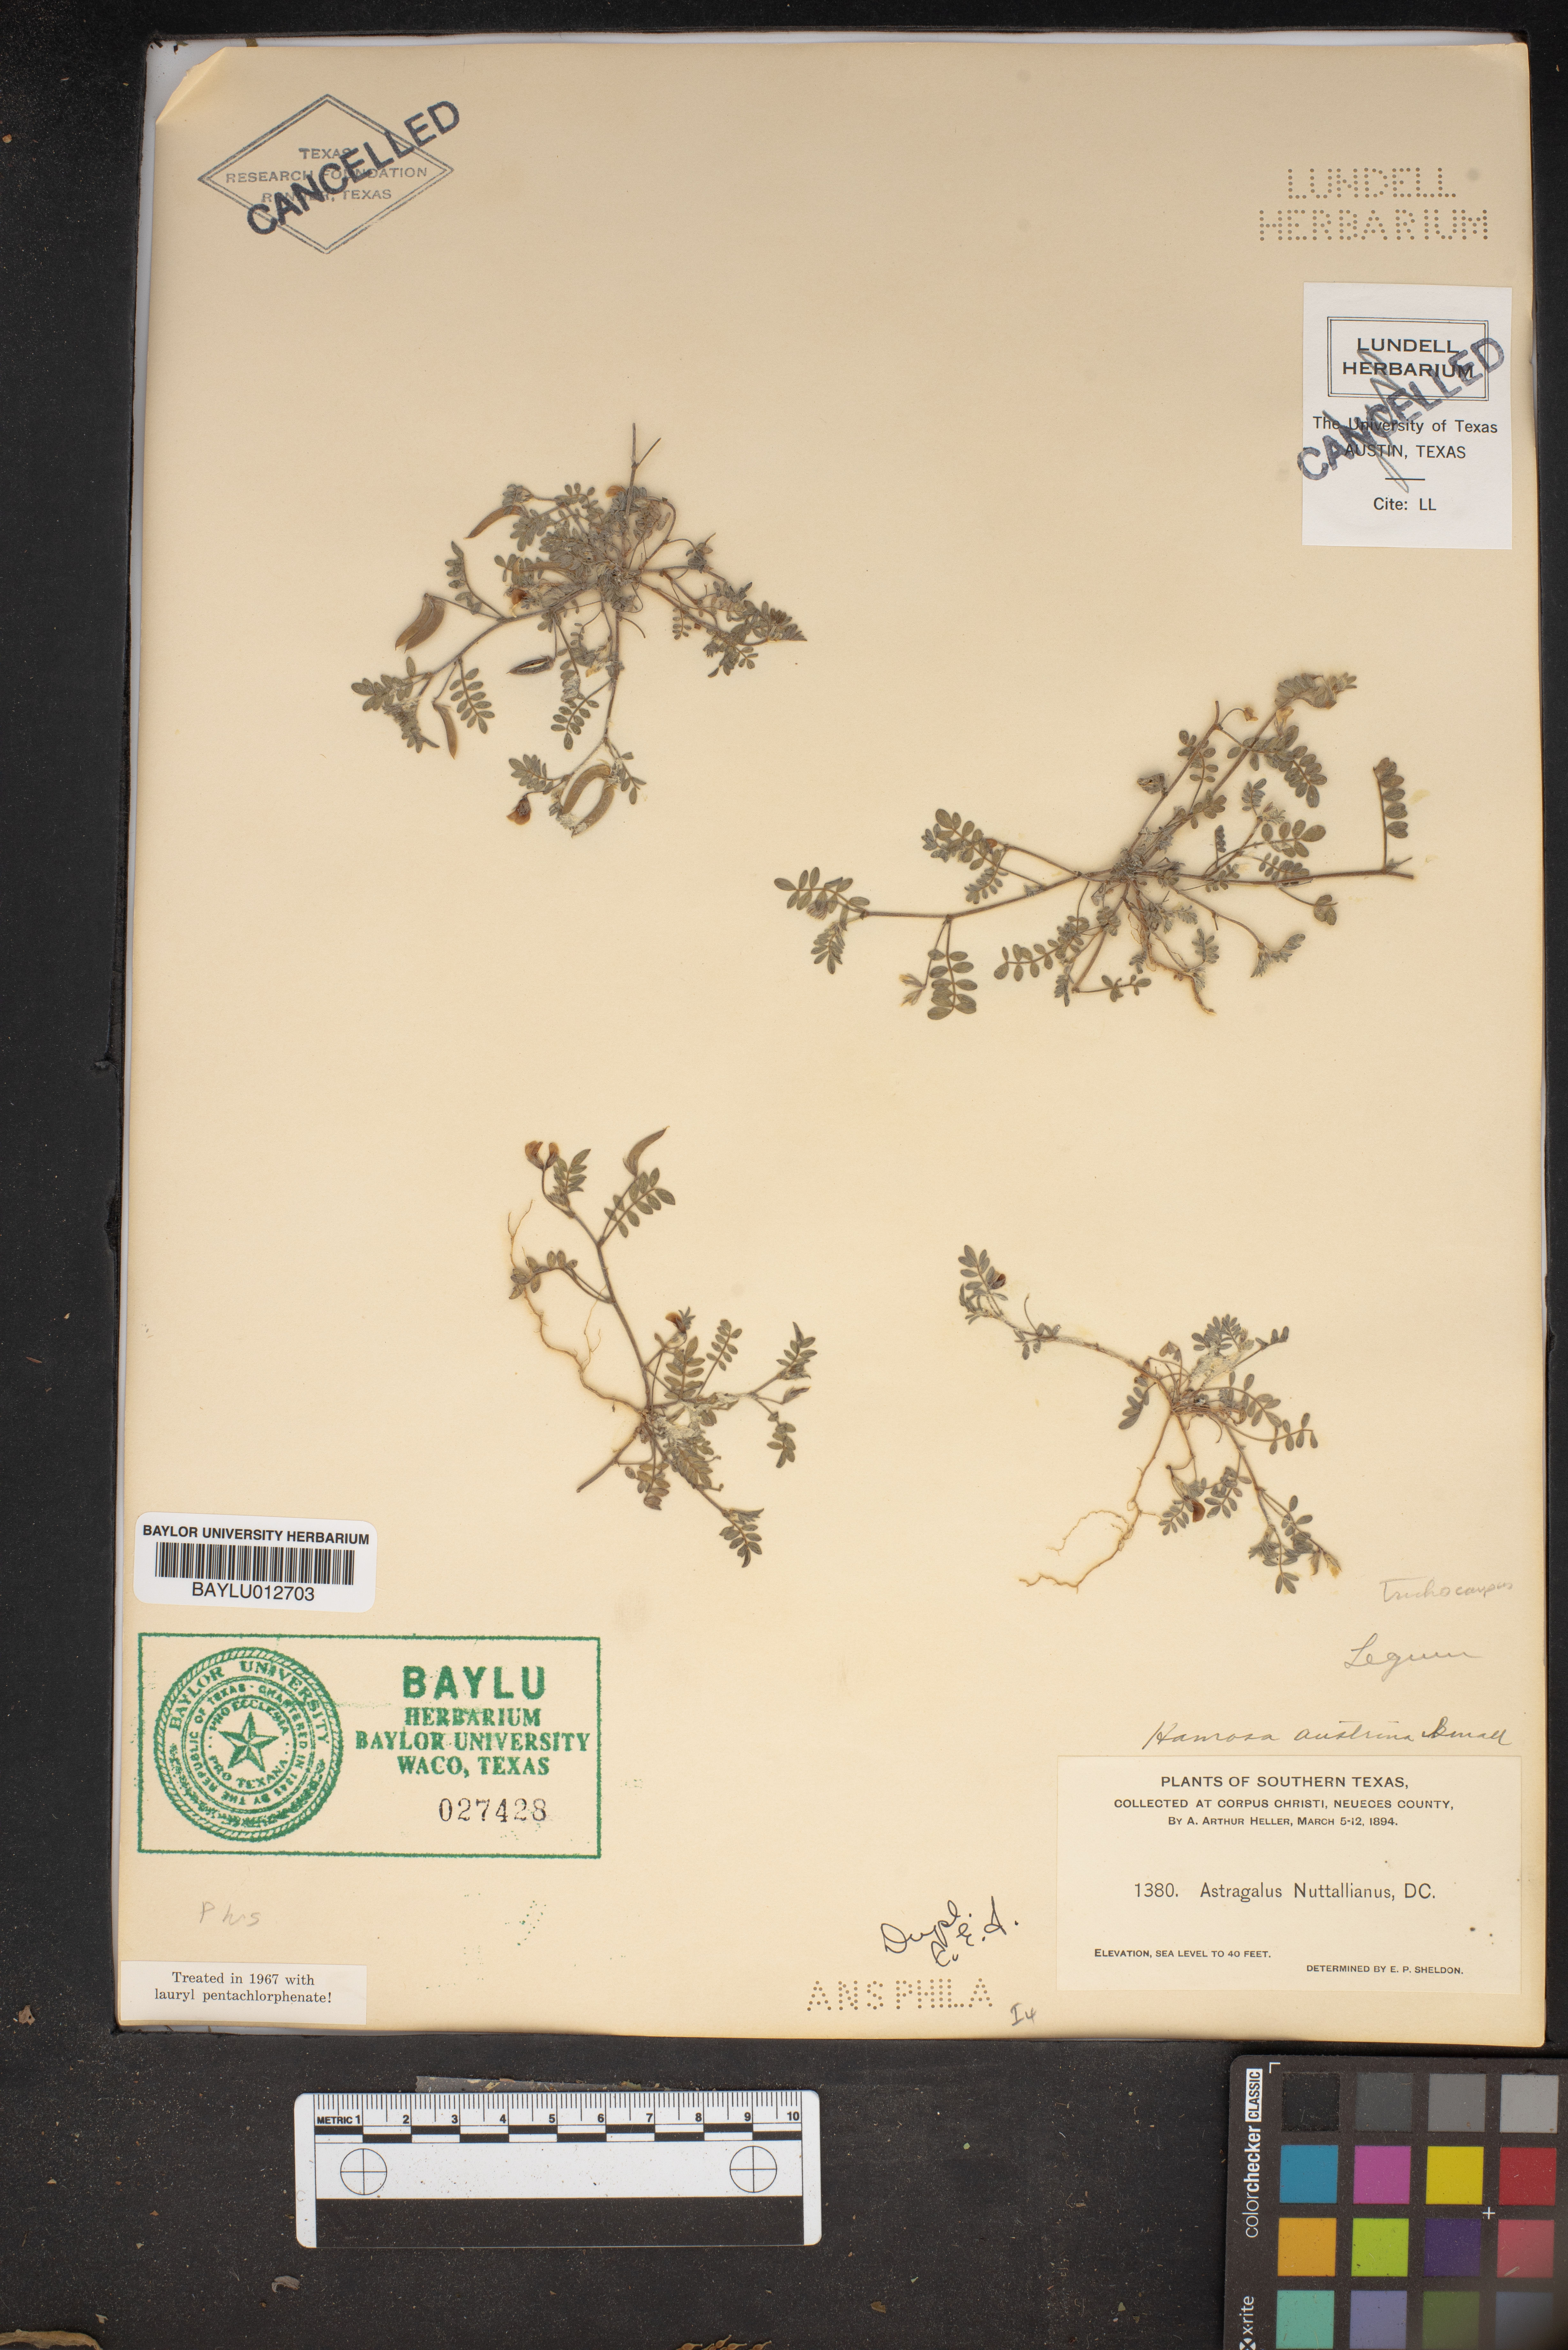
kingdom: Plantae
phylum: Tracheophyta
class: Magnoliopsida
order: Fabales
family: Fabaceae
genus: Astragalus
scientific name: Astragalus nuttallianus
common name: Smallflowered milkvetch
